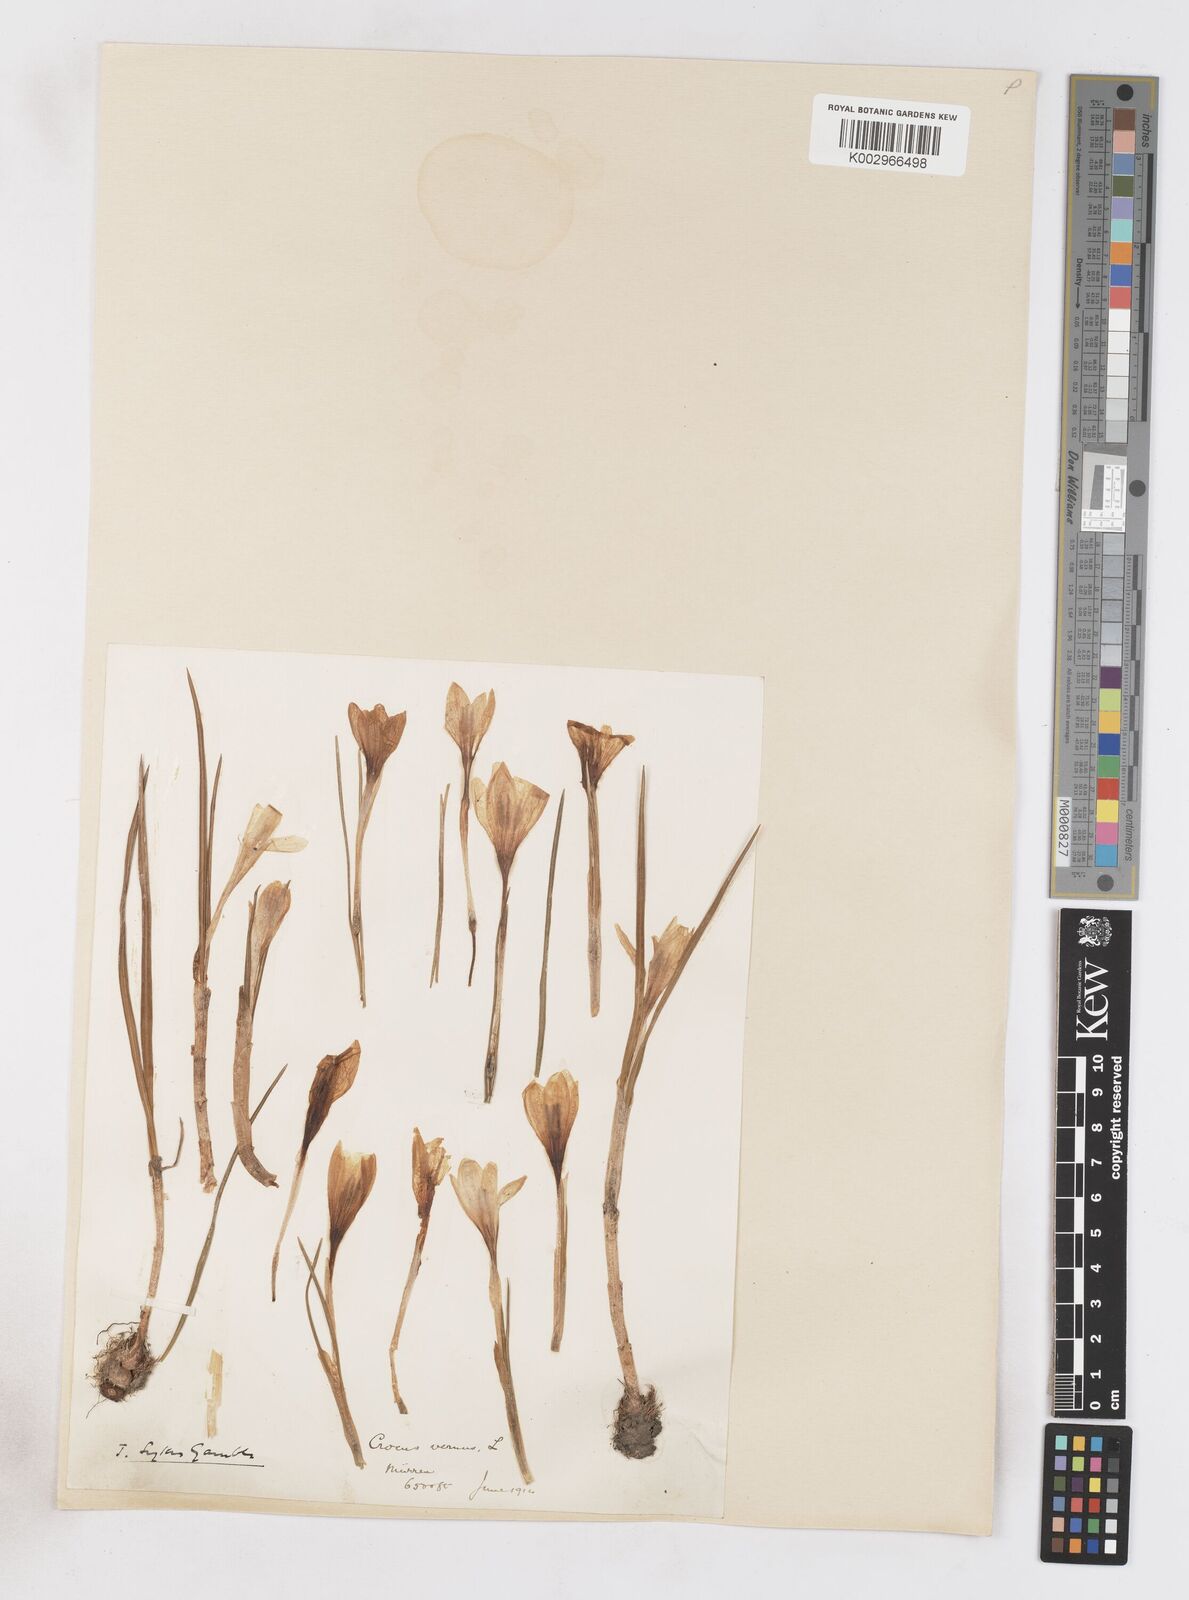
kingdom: Plantae
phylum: Tracheophyta
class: Liliopsida
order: Asparagales
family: Iridaceae
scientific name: Iridaceae
